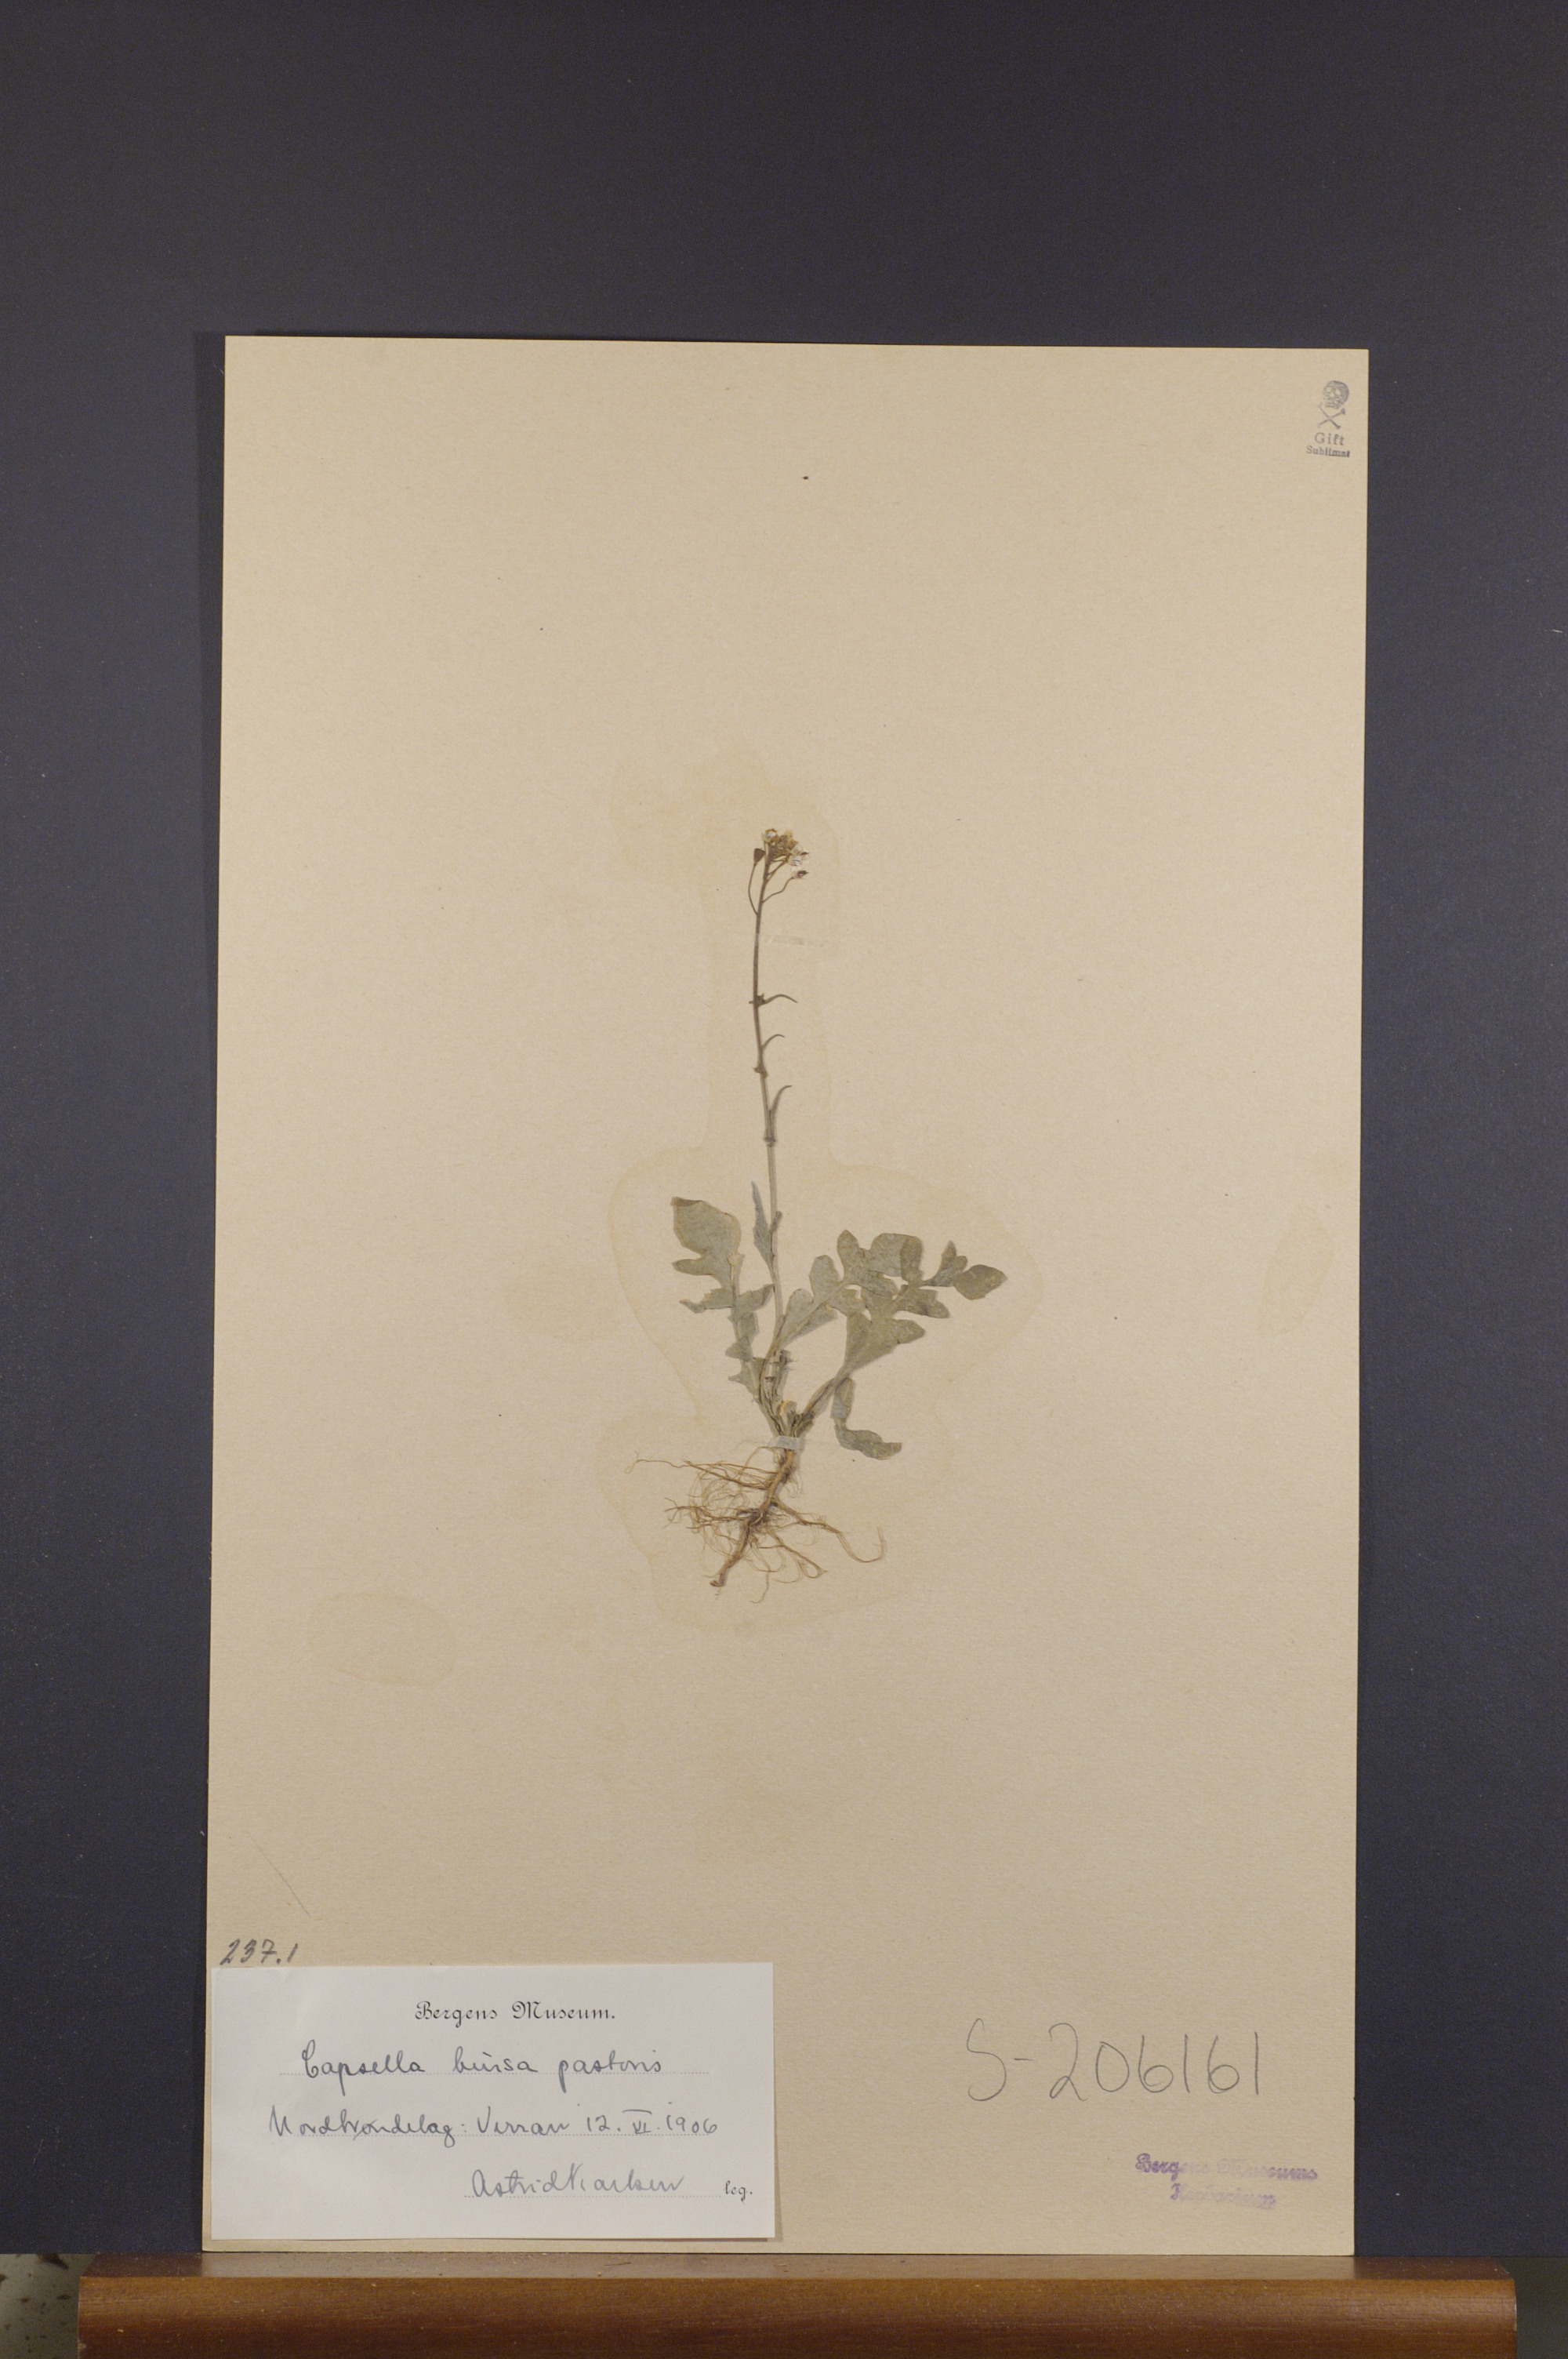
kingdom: Plantae
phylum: Tracheophyta
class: Magnoliopsida
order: Brassicales
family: Brassicaceae
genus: Capsella
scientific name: Capsella bursa-pastoris
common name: Shepherd's purse
